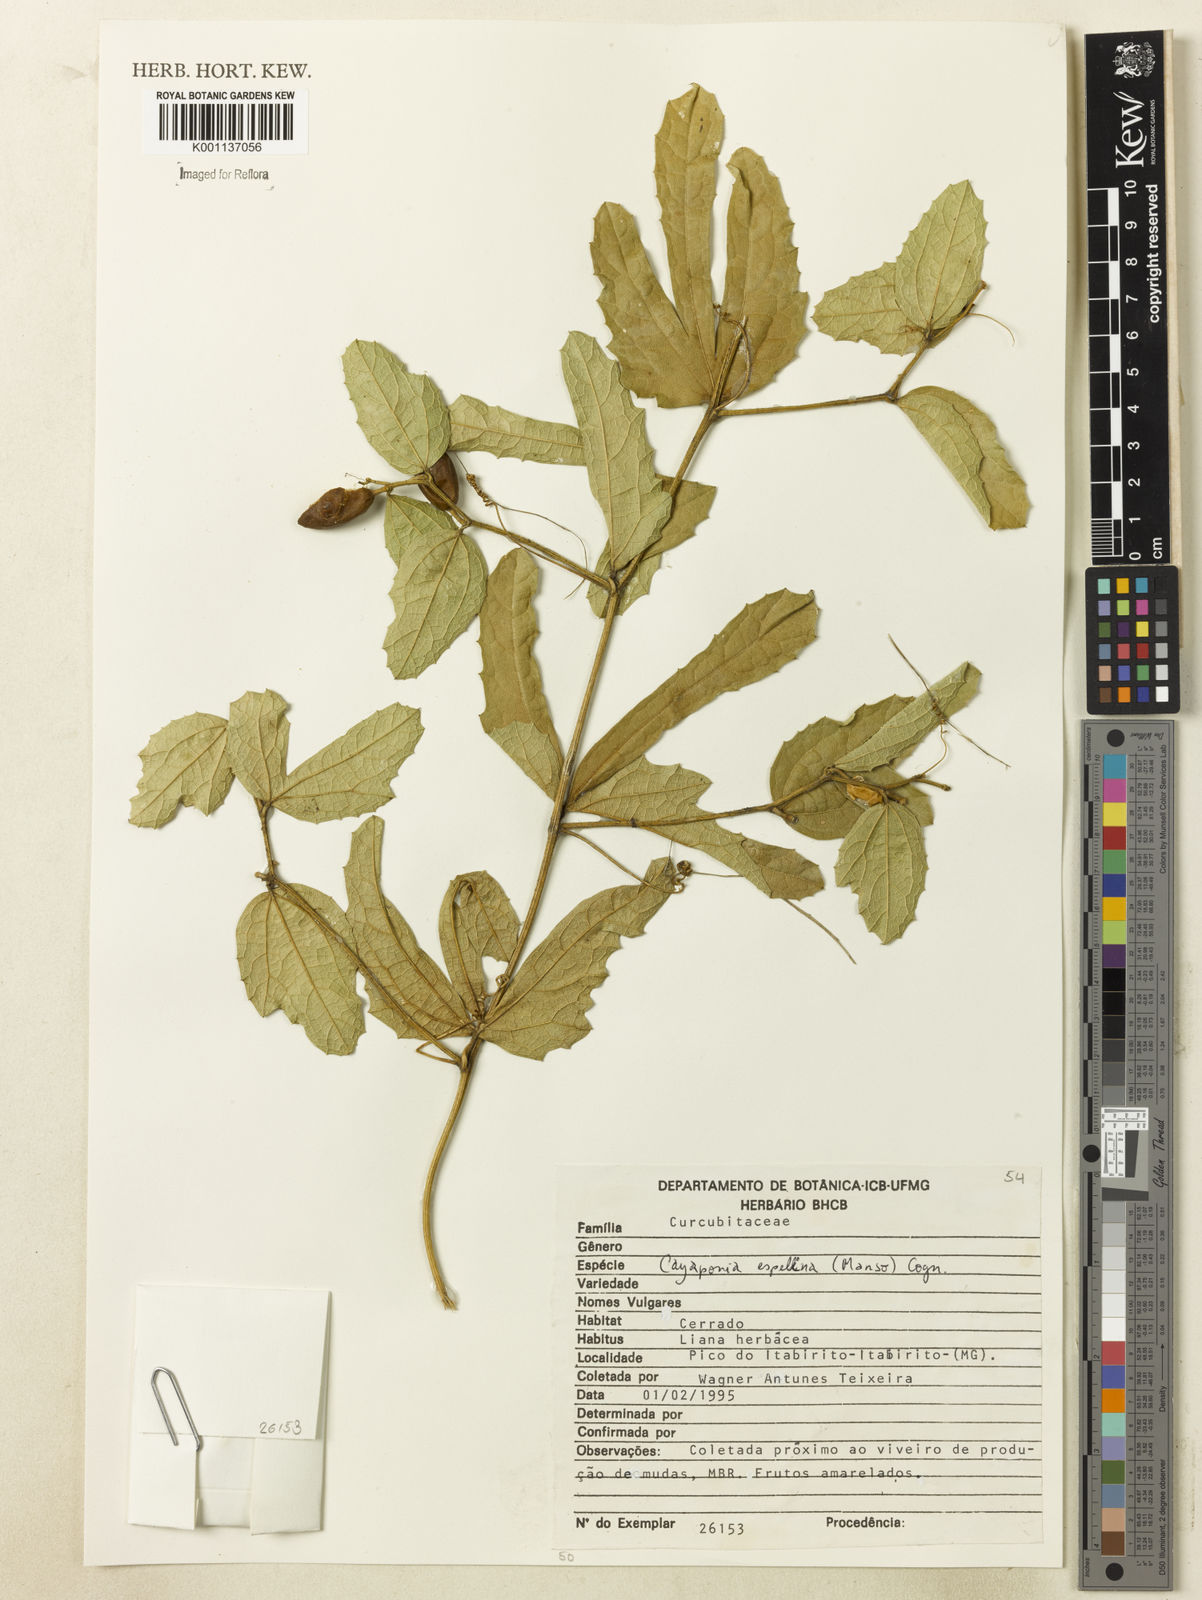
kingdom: Plantae
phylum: Tracheophyta
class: Magnoliopsida
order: Cucurbitales
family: Cucurbitaceae
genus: Cayaponia
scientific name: Cayaponia espelina
